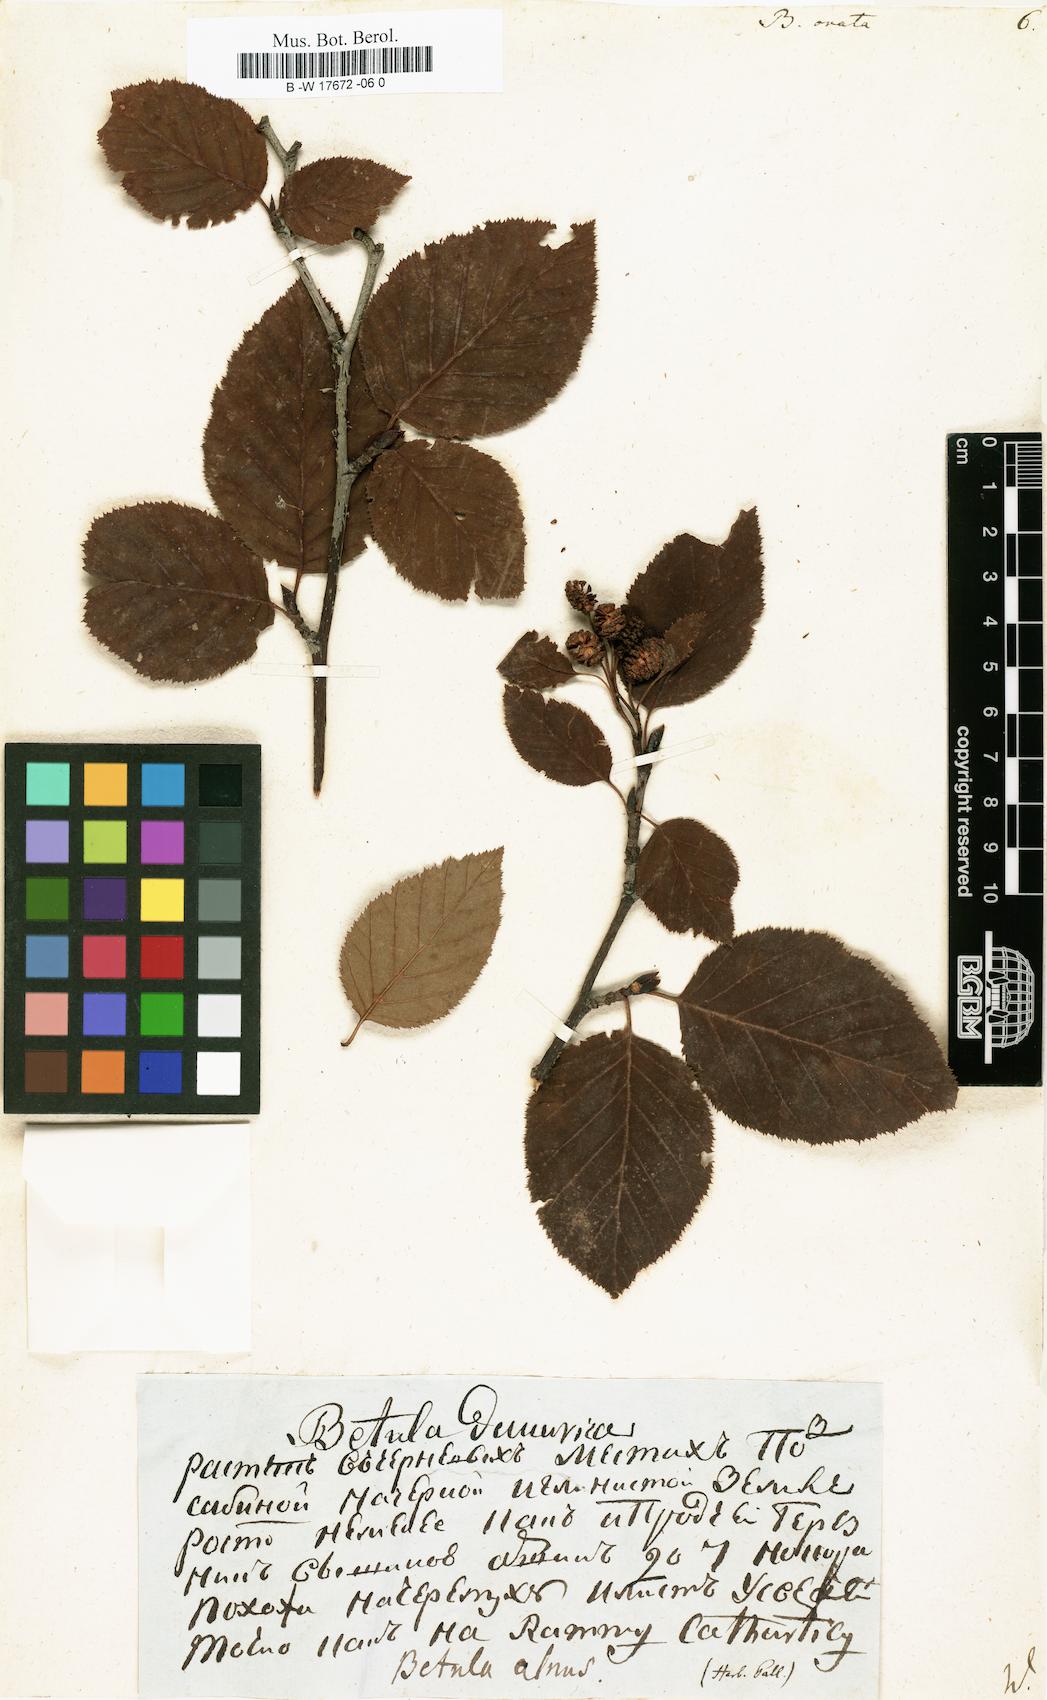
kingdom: Plantae
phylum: Tracheophyta
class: Magnoliopsida
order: Fagales
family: Betulaceae
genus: Betula
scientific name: Betula pubescens
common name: Downy birch
